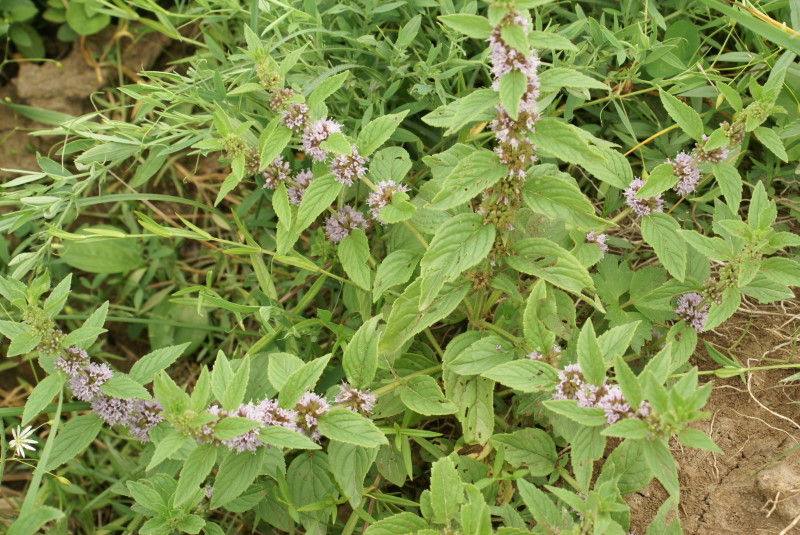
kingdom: Plantae
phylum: Tracheophyta
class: Magnoliopsida
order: Lamiales
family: Lamiaceae
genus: Mentha
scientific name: Mentha arvensis
